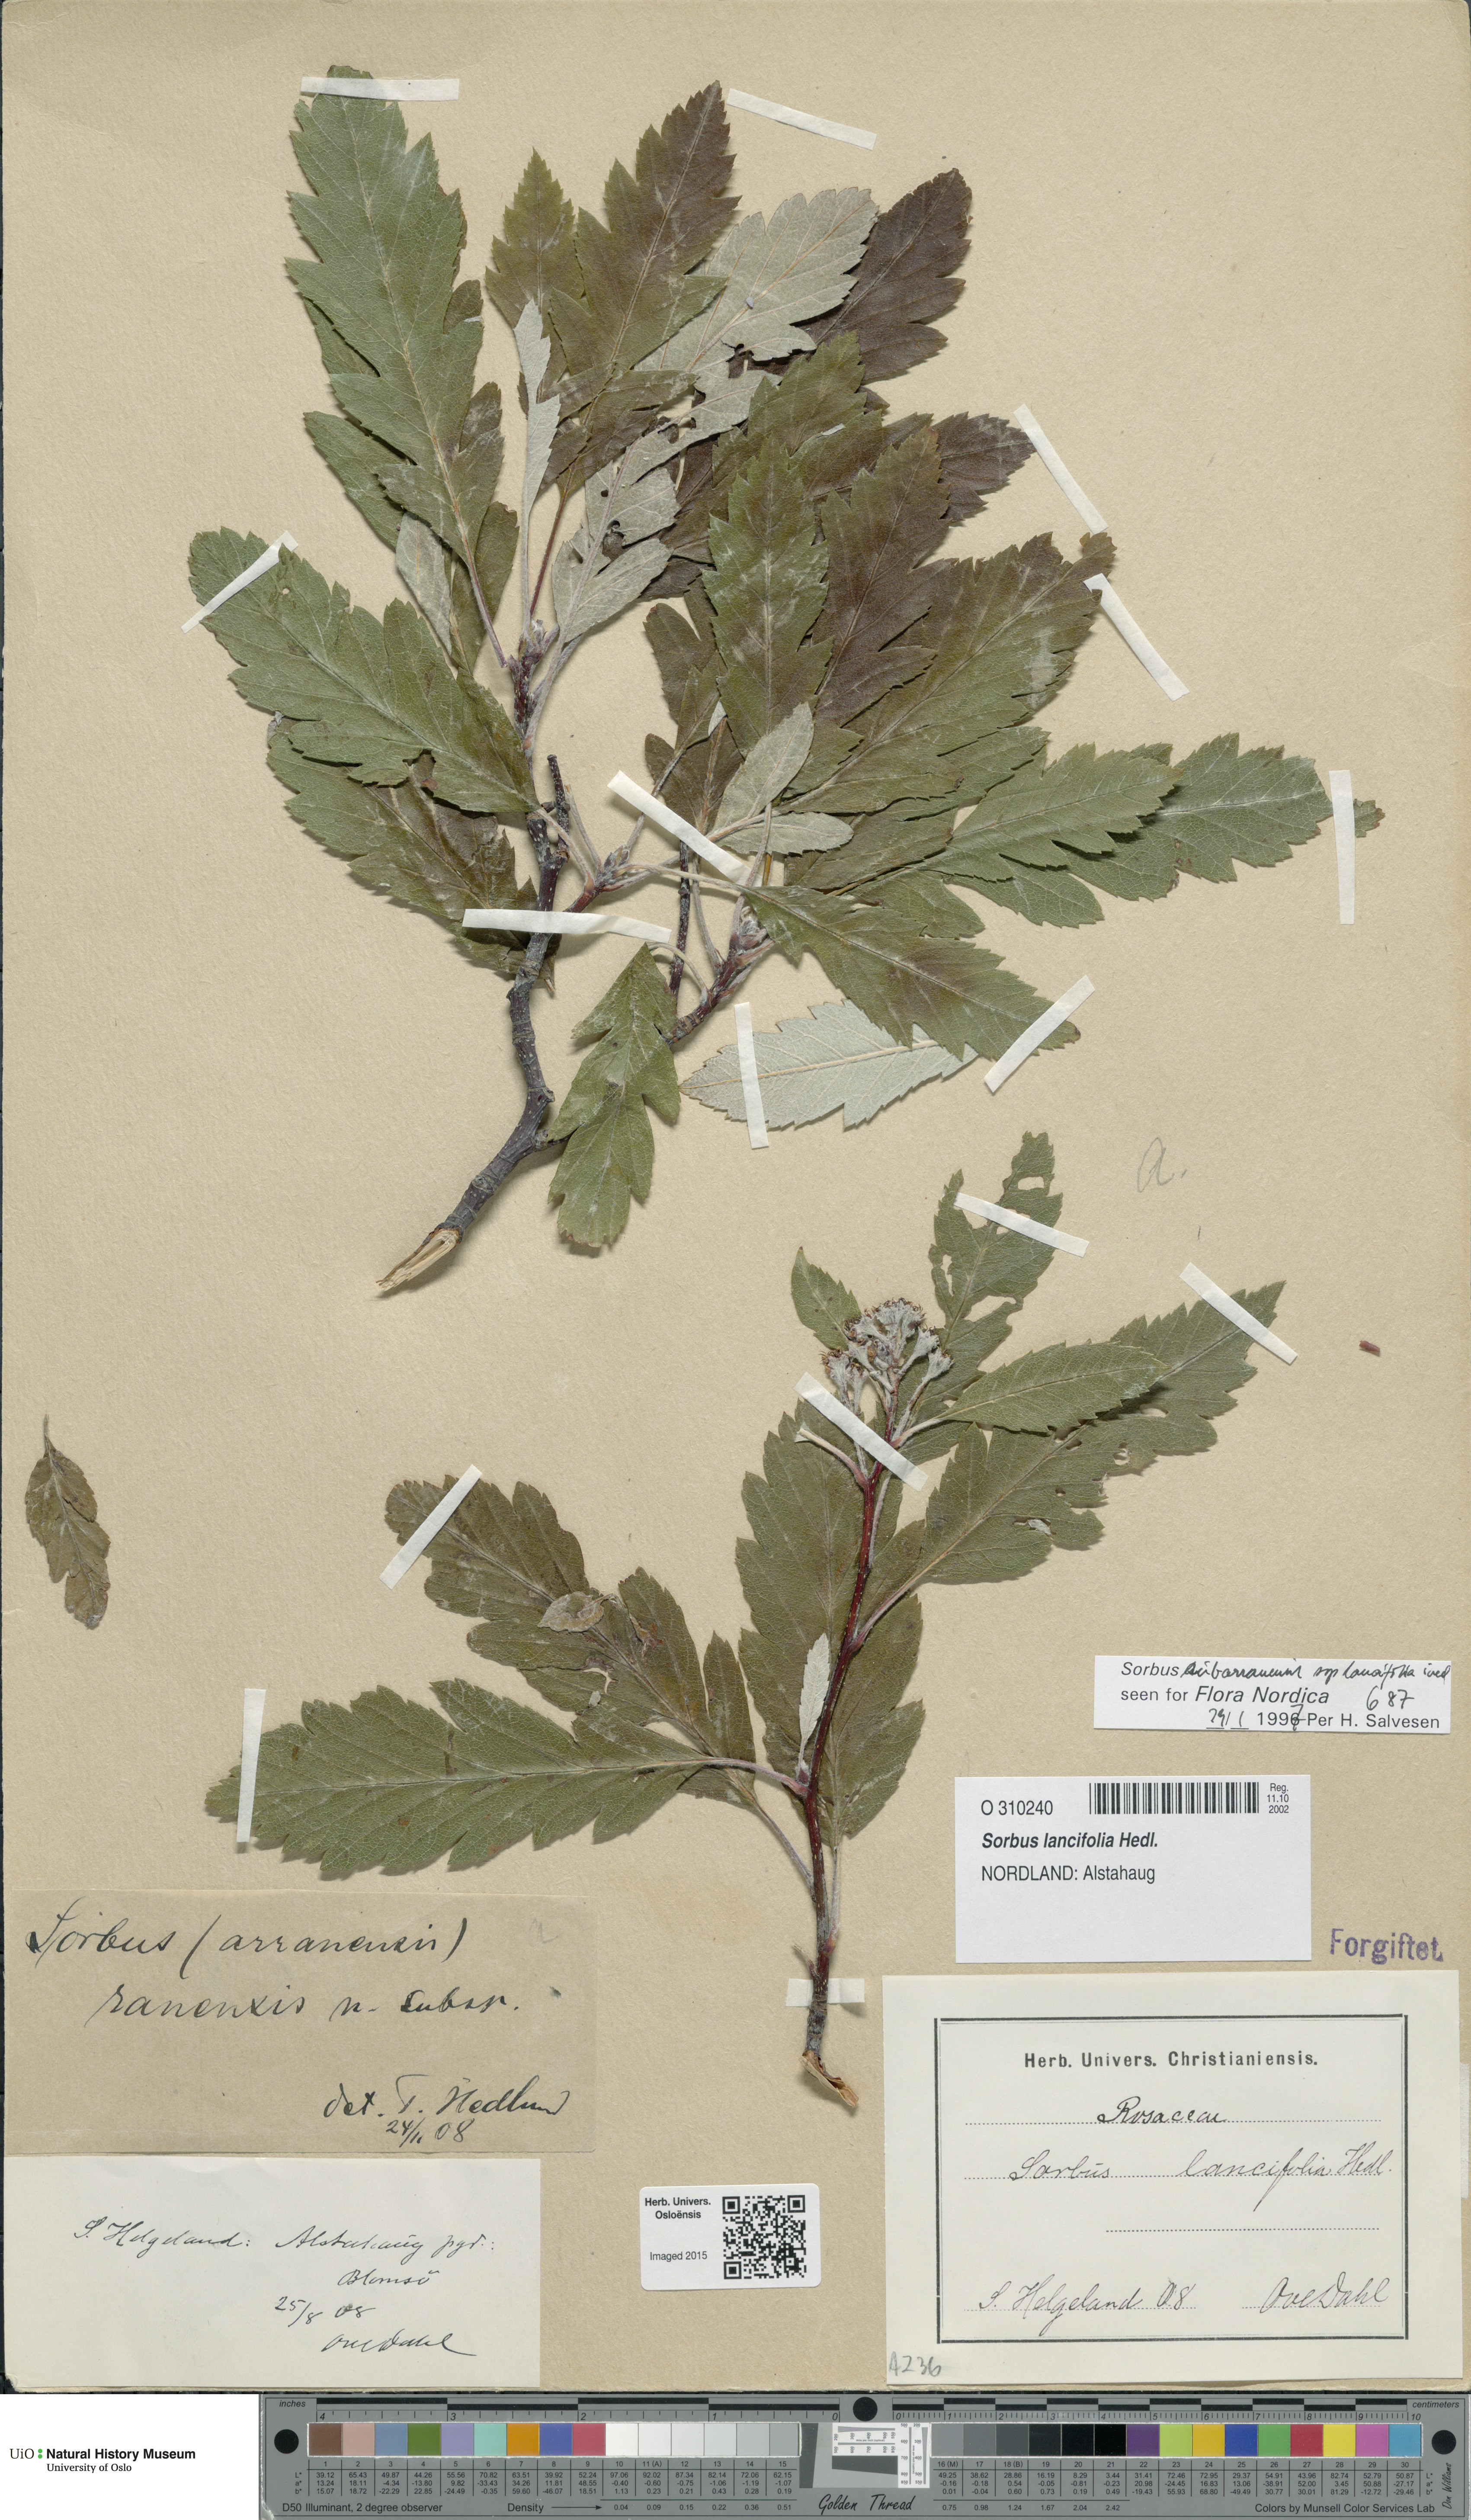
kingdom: Plantae
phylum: Tracheophyta
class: Magnoliopsida
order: Rosales
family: Rosaceae
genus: Hedlundia
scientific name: Hedlundia lancifolia
